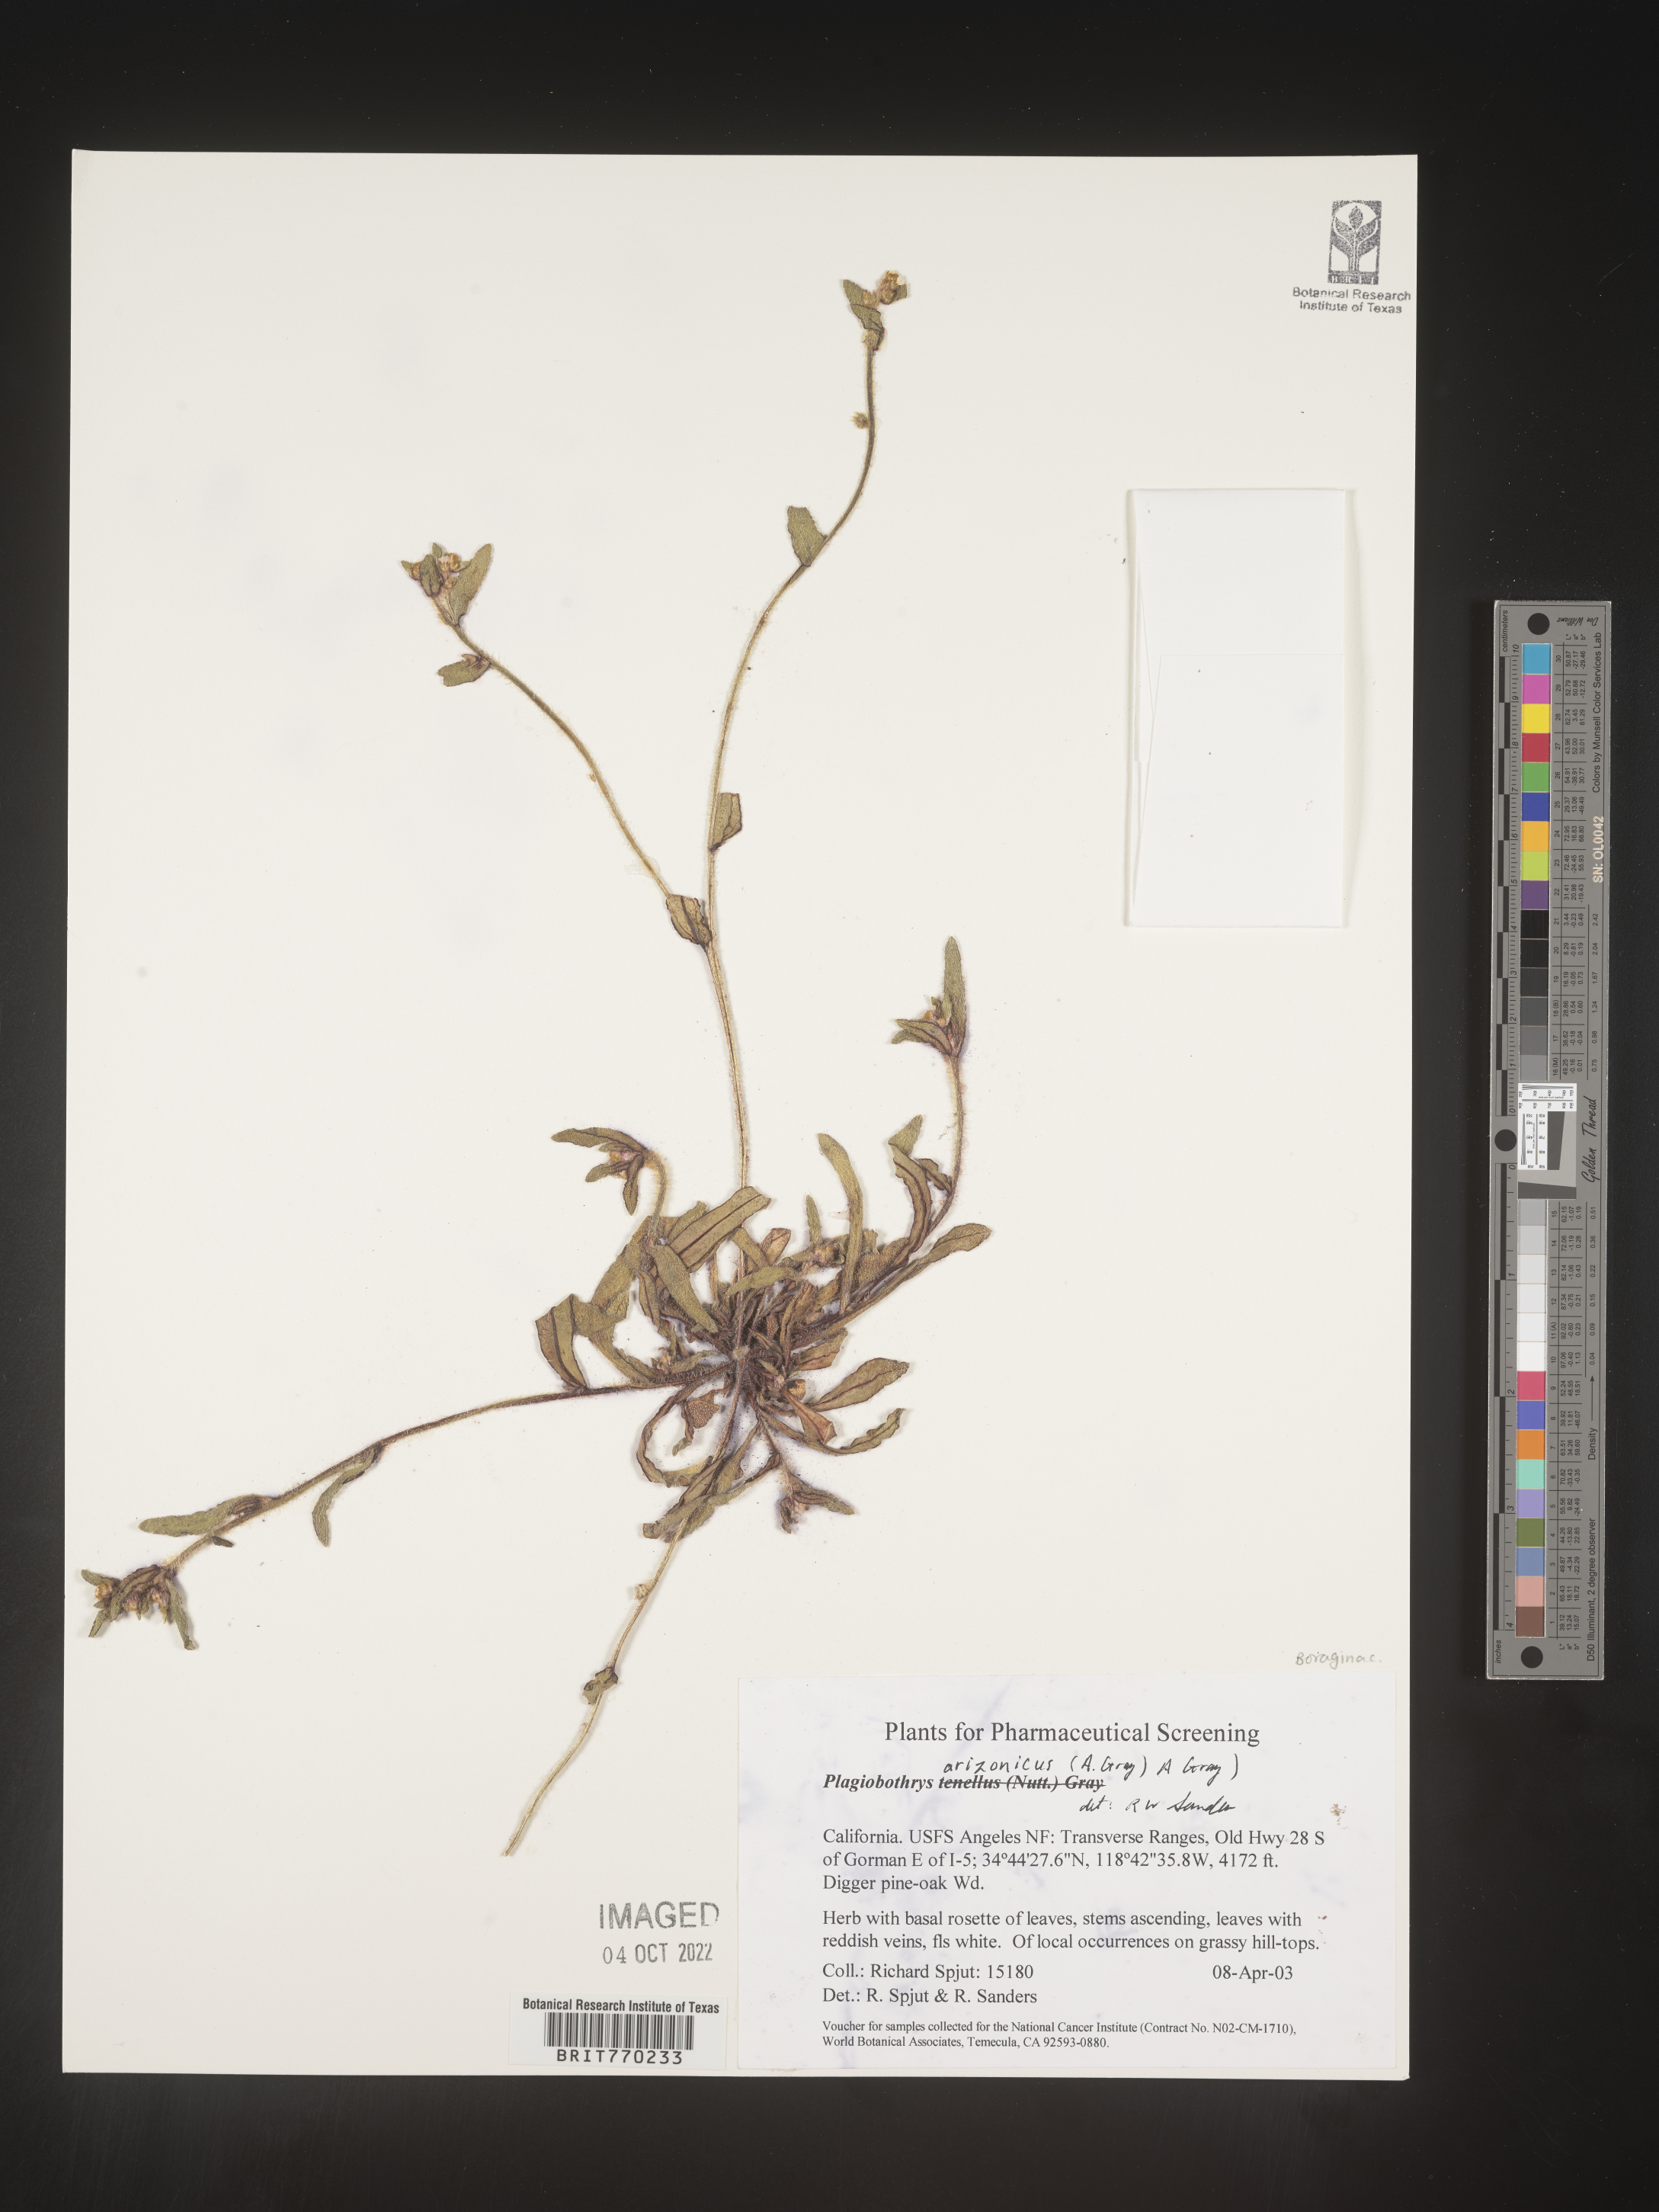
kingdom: Plantae
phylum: Tracheophyta
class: Magnoliopsida
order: Boraginales
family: Boraginaceae
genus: Plagiobothrys
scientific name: Plagiobothrys
